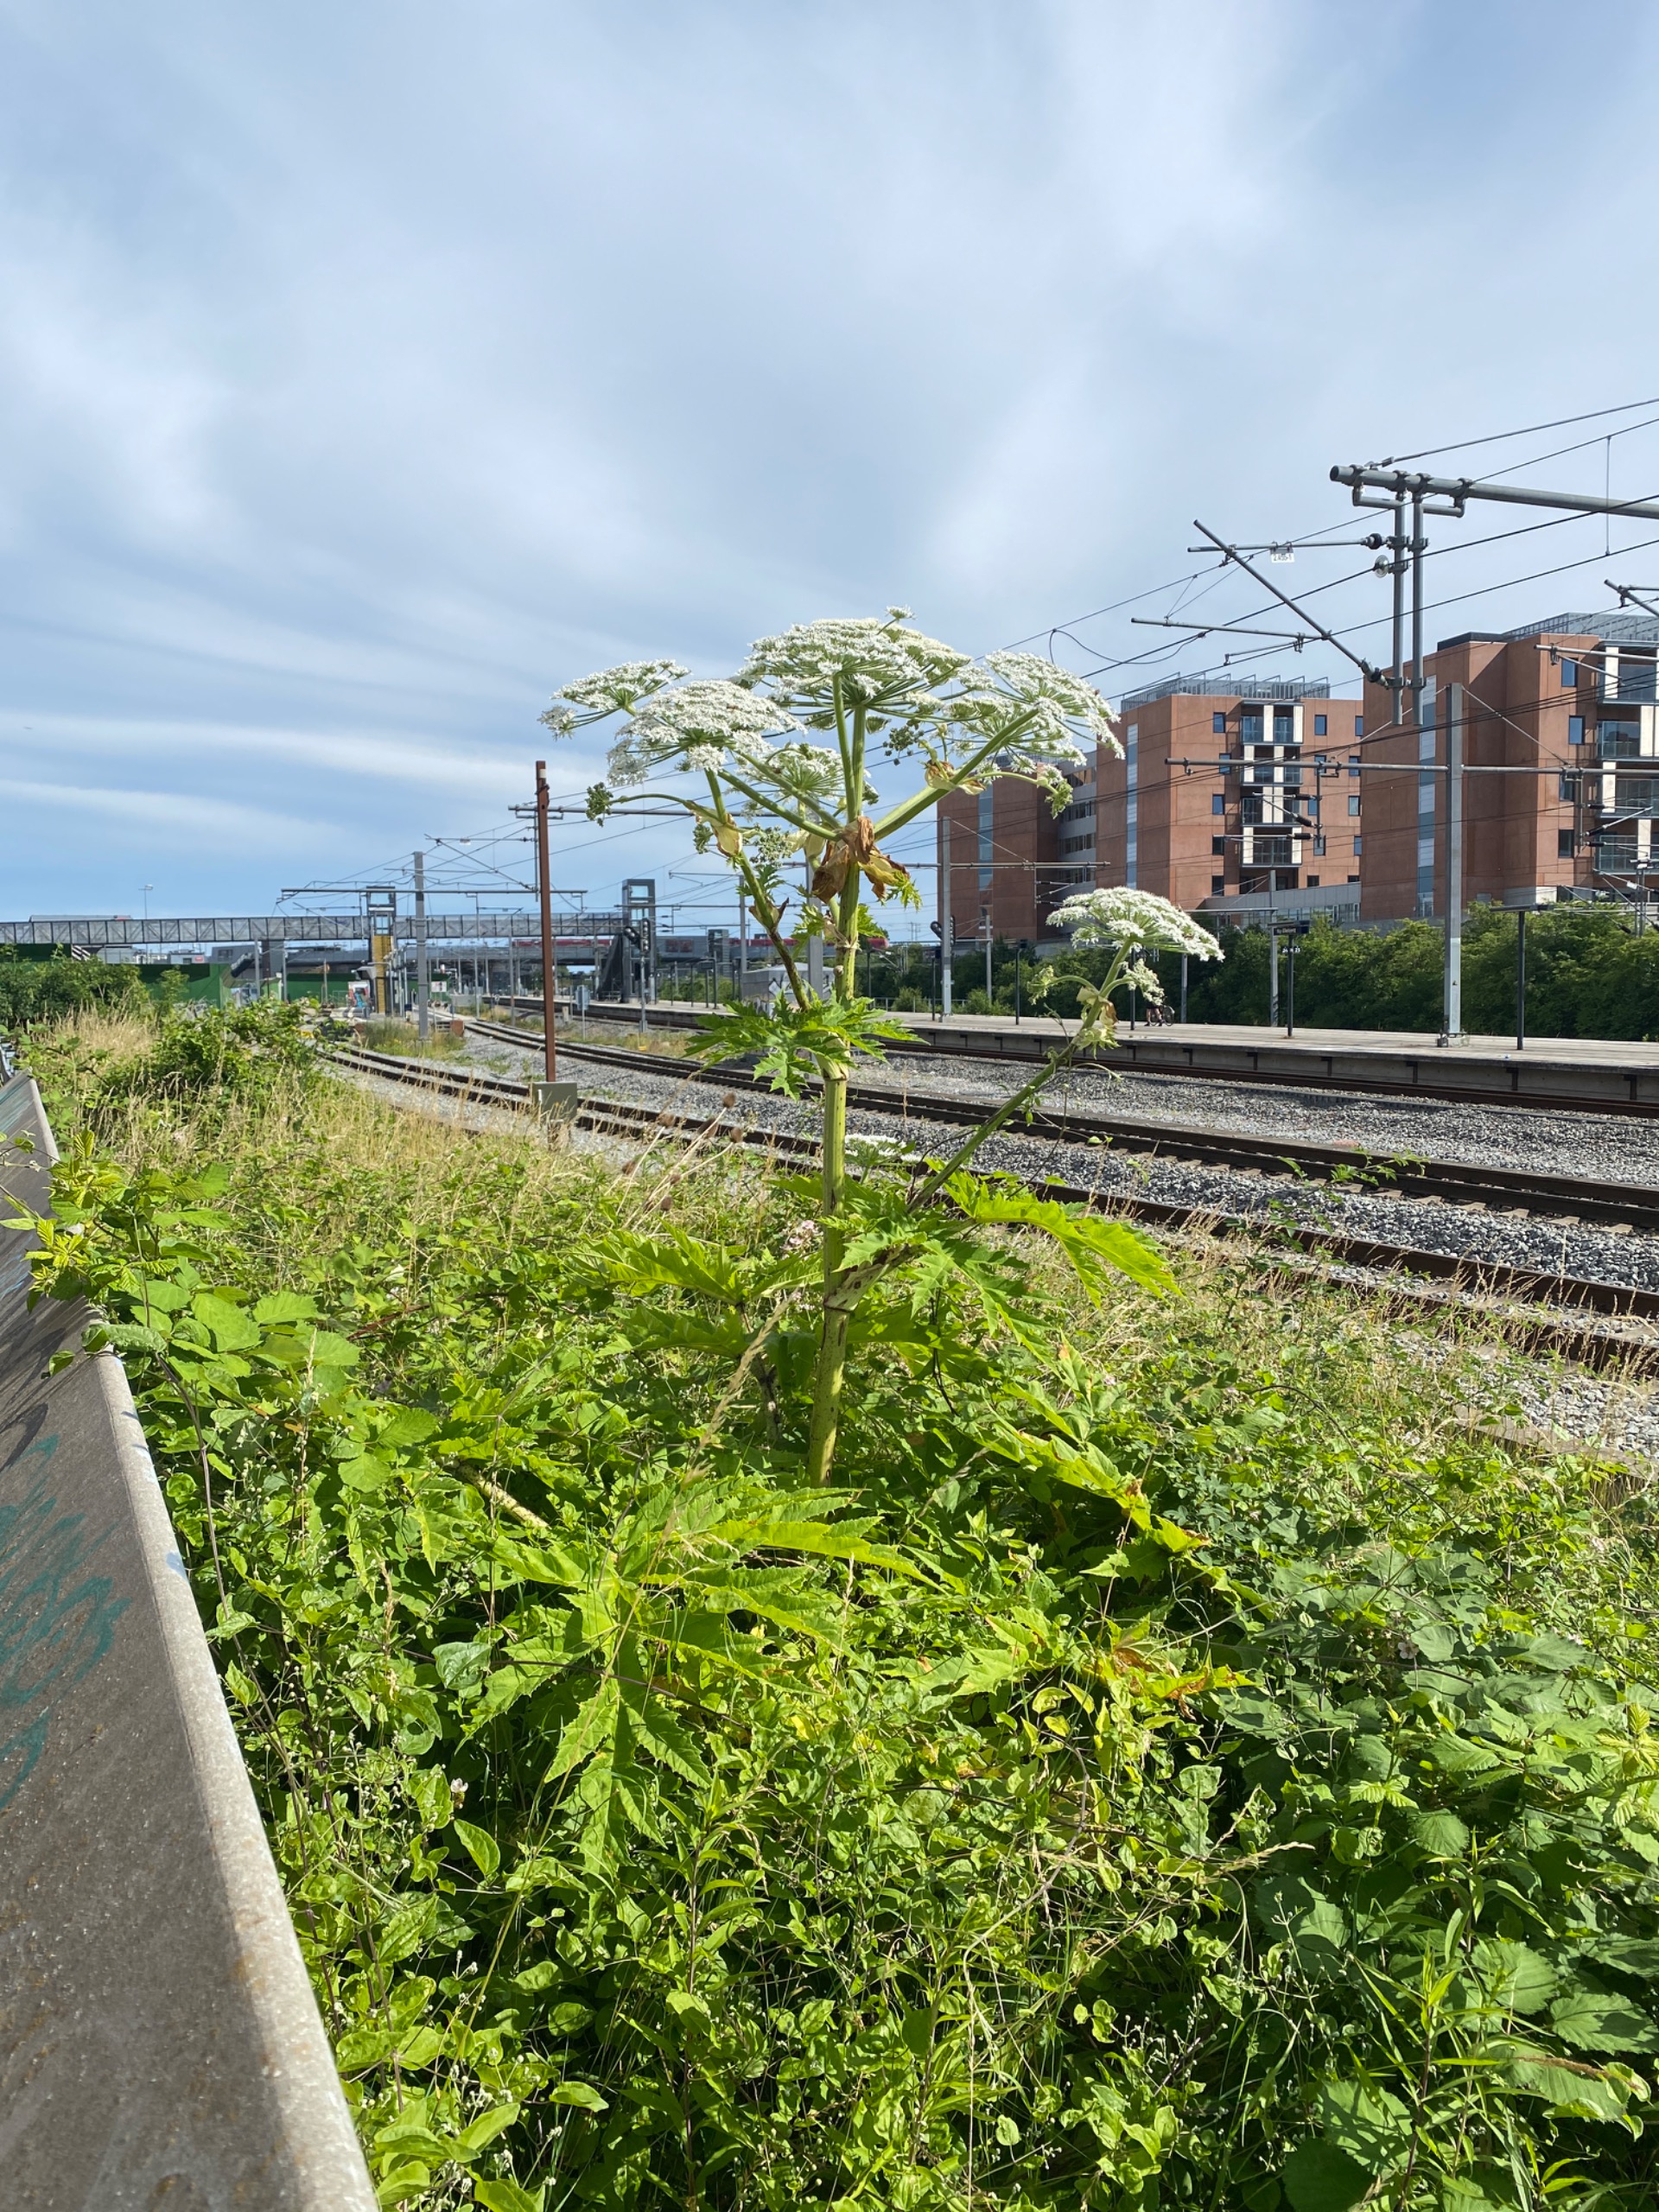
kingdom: Plantae
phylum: Tracheophyta
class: Magnoliopsida
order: Apiales
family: Apiaceae
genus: Heracleum
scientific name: Heracleum mantegazzianum
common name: Kæmpe-bjørneklo
